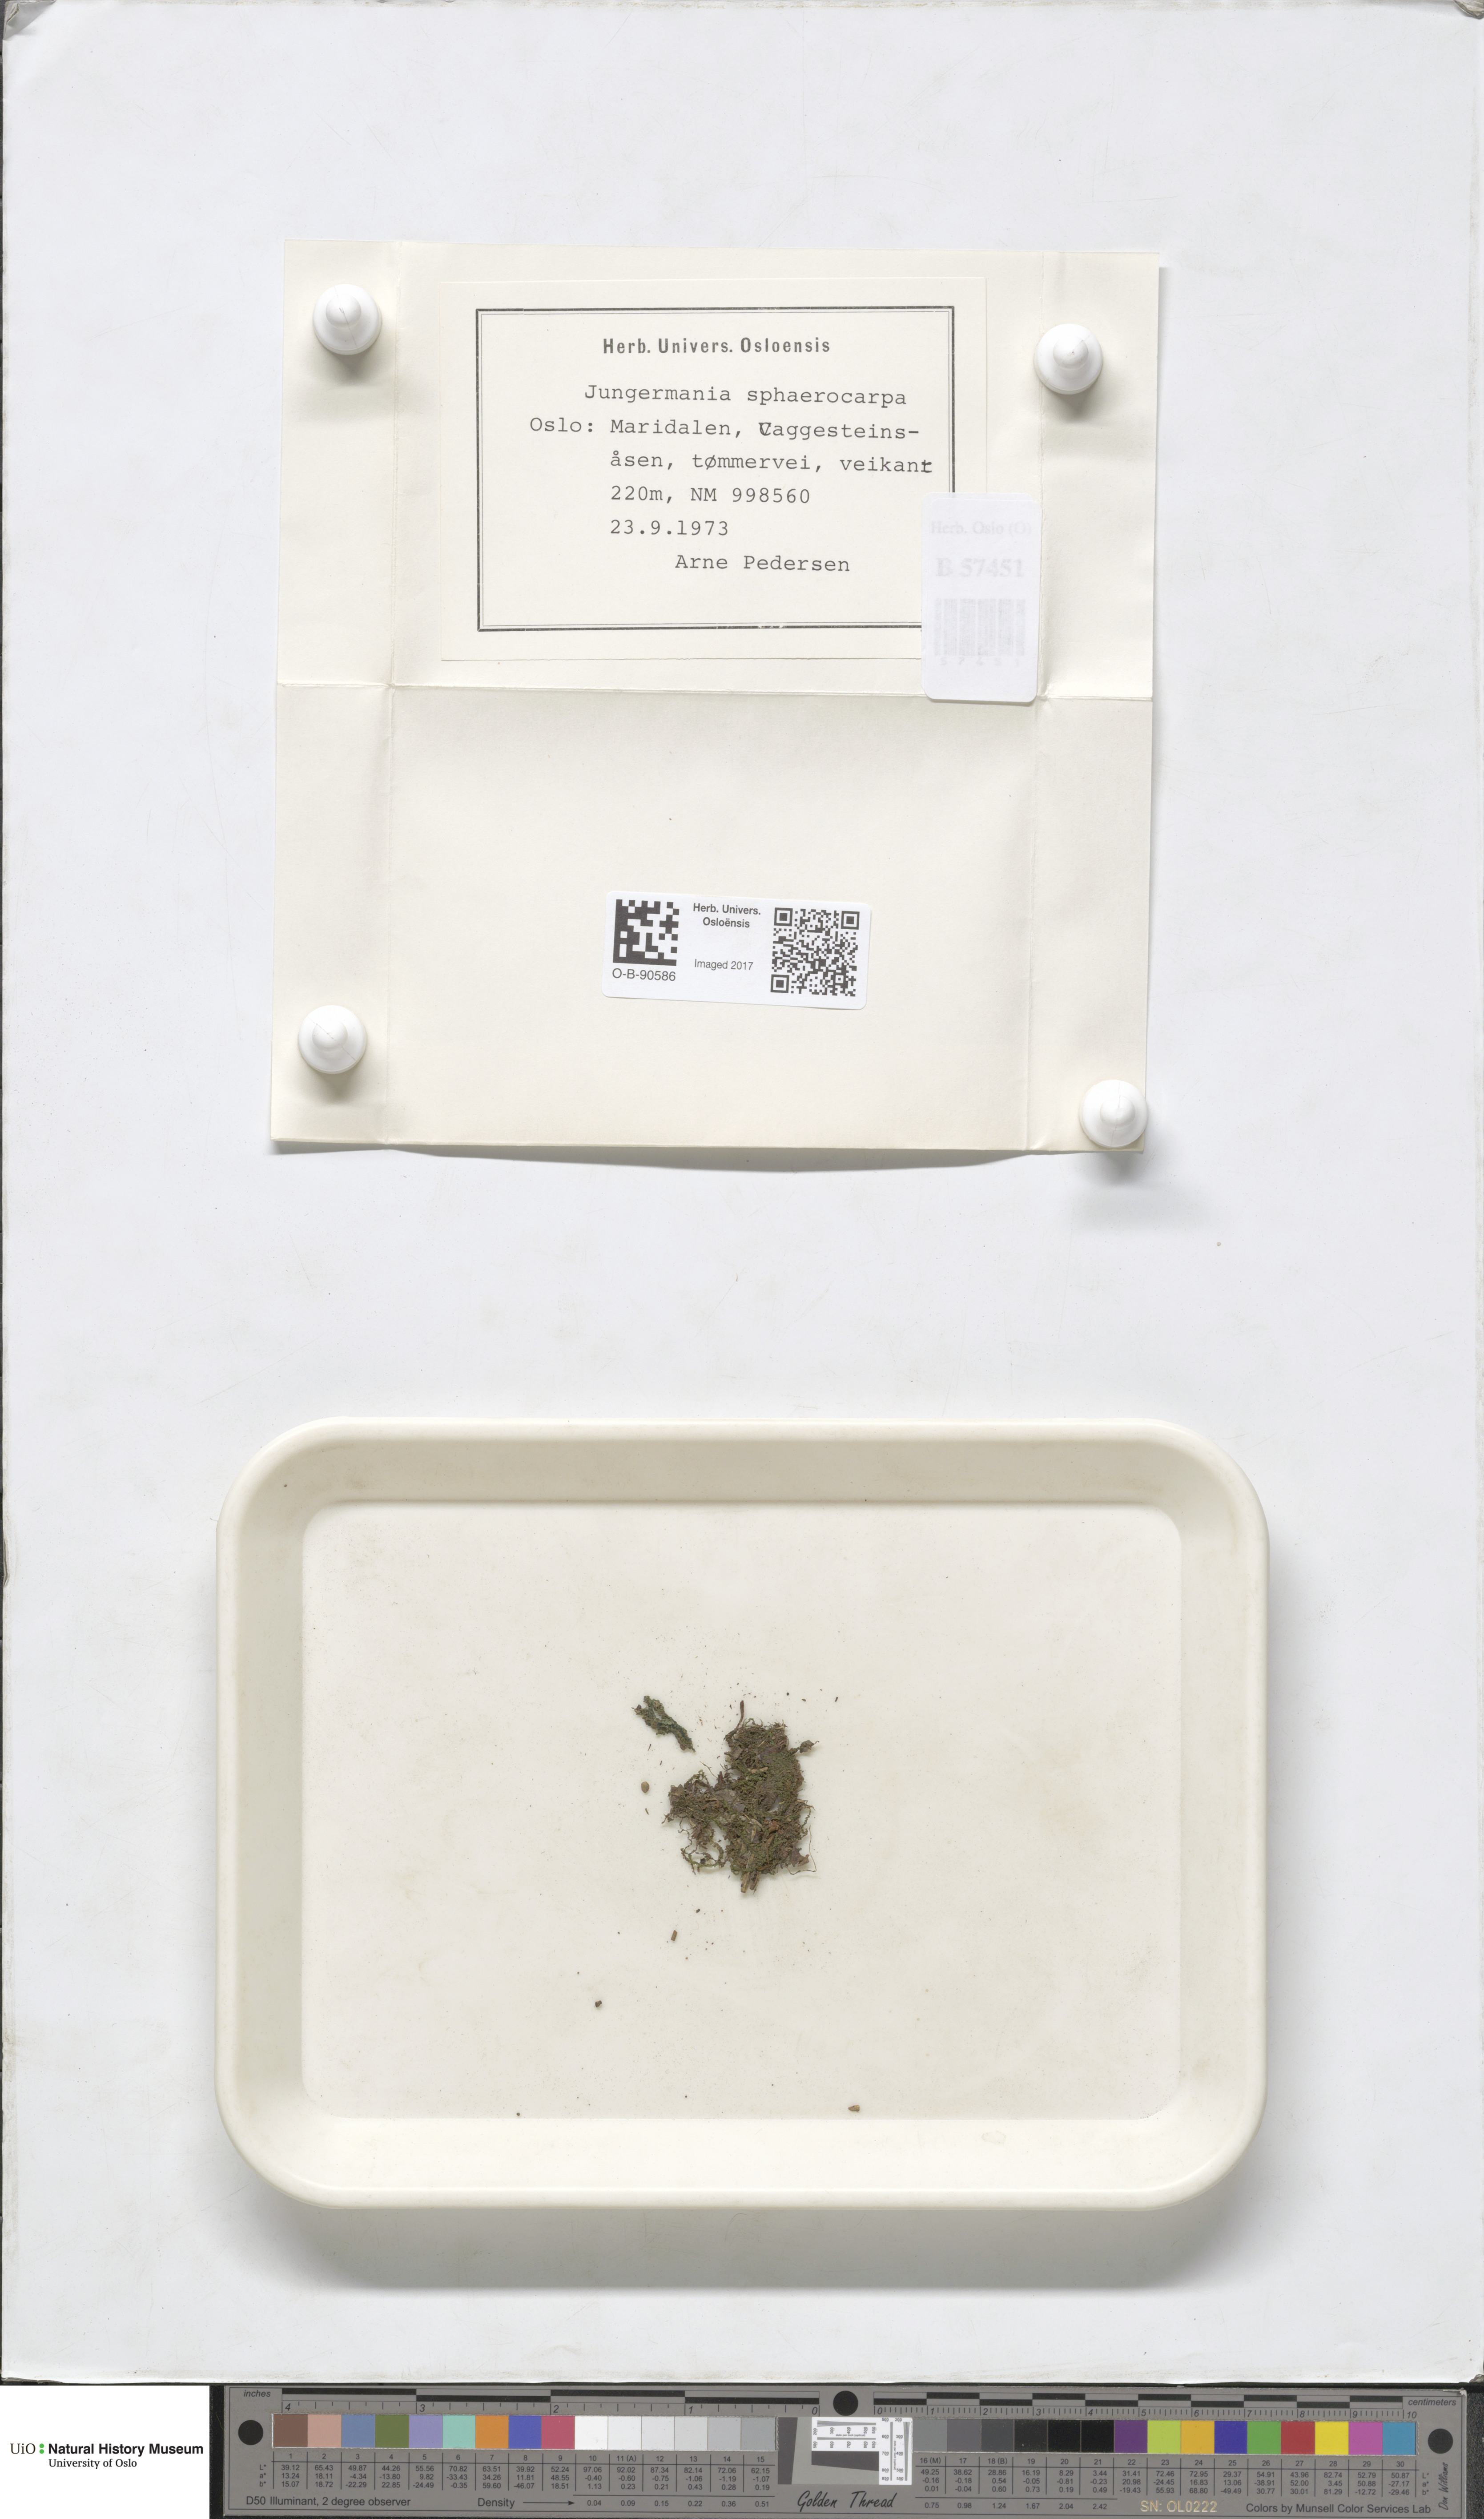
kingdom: Plantae
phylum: Marchantiophyta
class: Jungermanniopsida
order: Jungermanniales
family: Solenostomataceae
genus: Solenostoma
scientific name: Solenostoma sphaerocarpum
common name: Round-fruited flapwort
